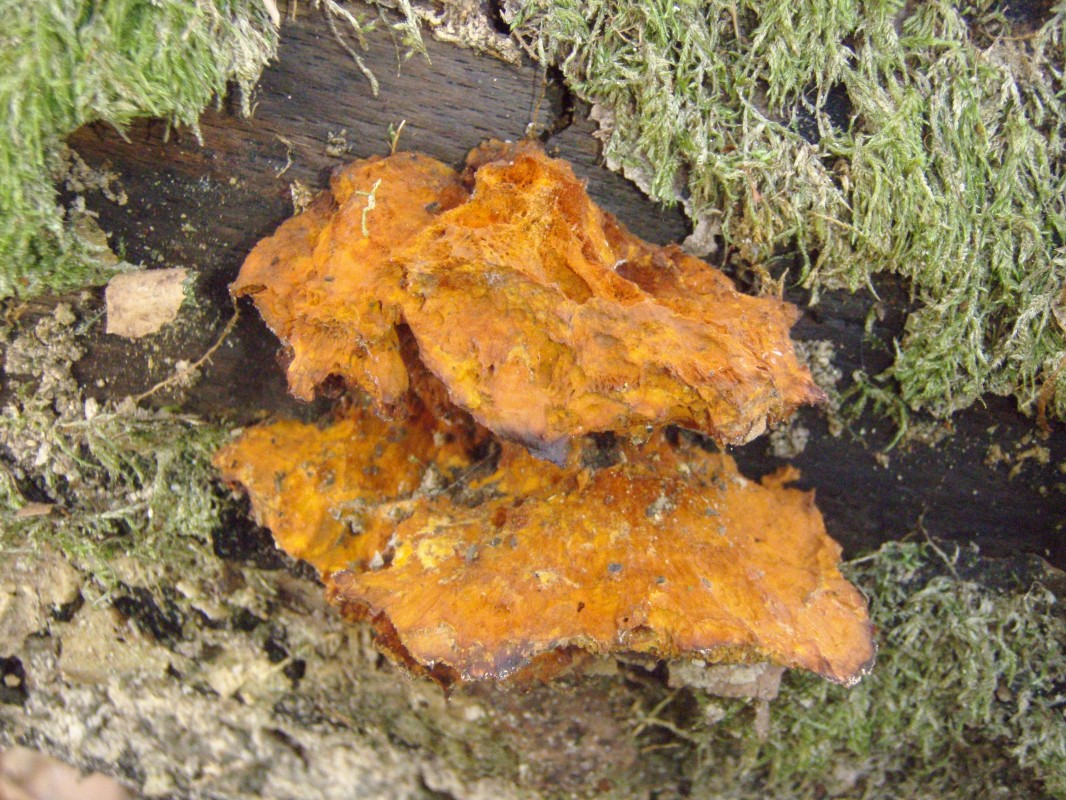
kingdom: Fungi
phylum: Basidiomycota
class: Agaricomycetes
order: Polyporales
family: Pycnoporellaceae
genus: Pycnoporellus
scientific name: Pycnoporellus fulgens
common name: flammeporesvamp
